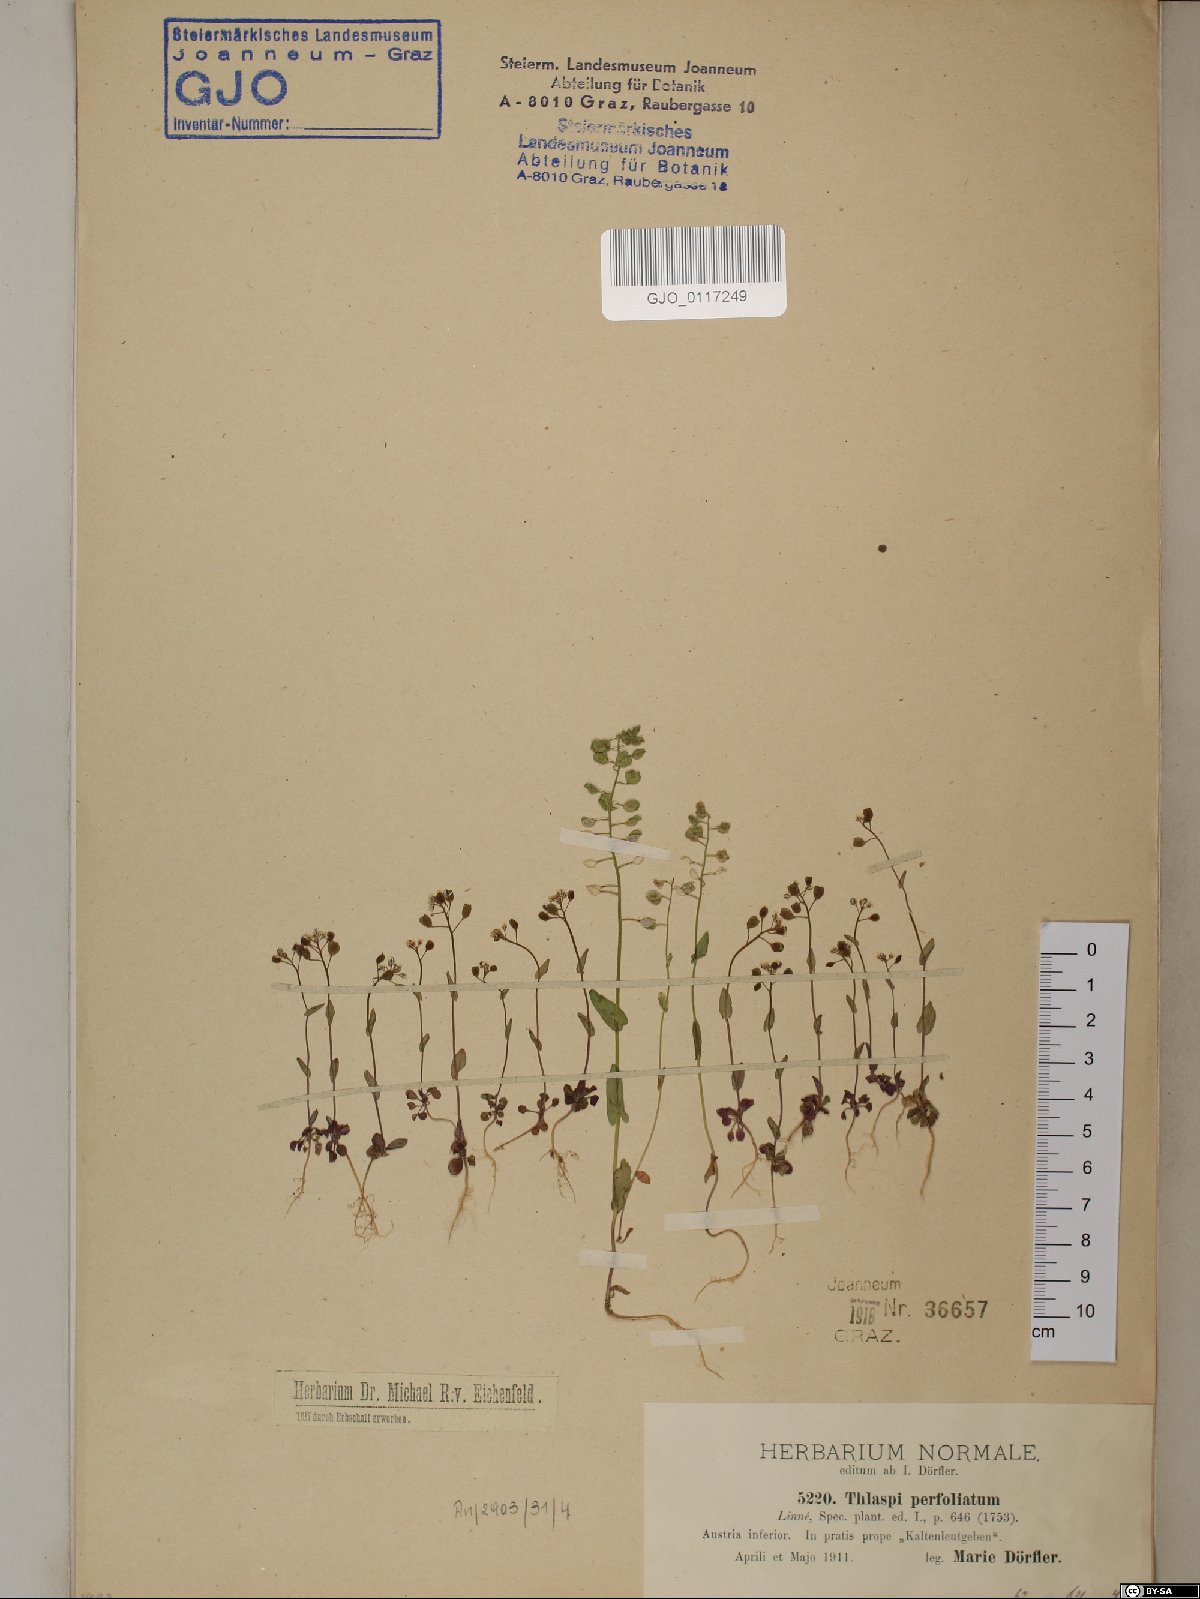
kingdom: Plantae
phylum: Tracheophyta
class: Magnoliopsida
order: Brassicales
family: Brassicaceae
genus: Noccaea
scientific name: Noccaea perfoliata
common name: Perfoliate pennycress
